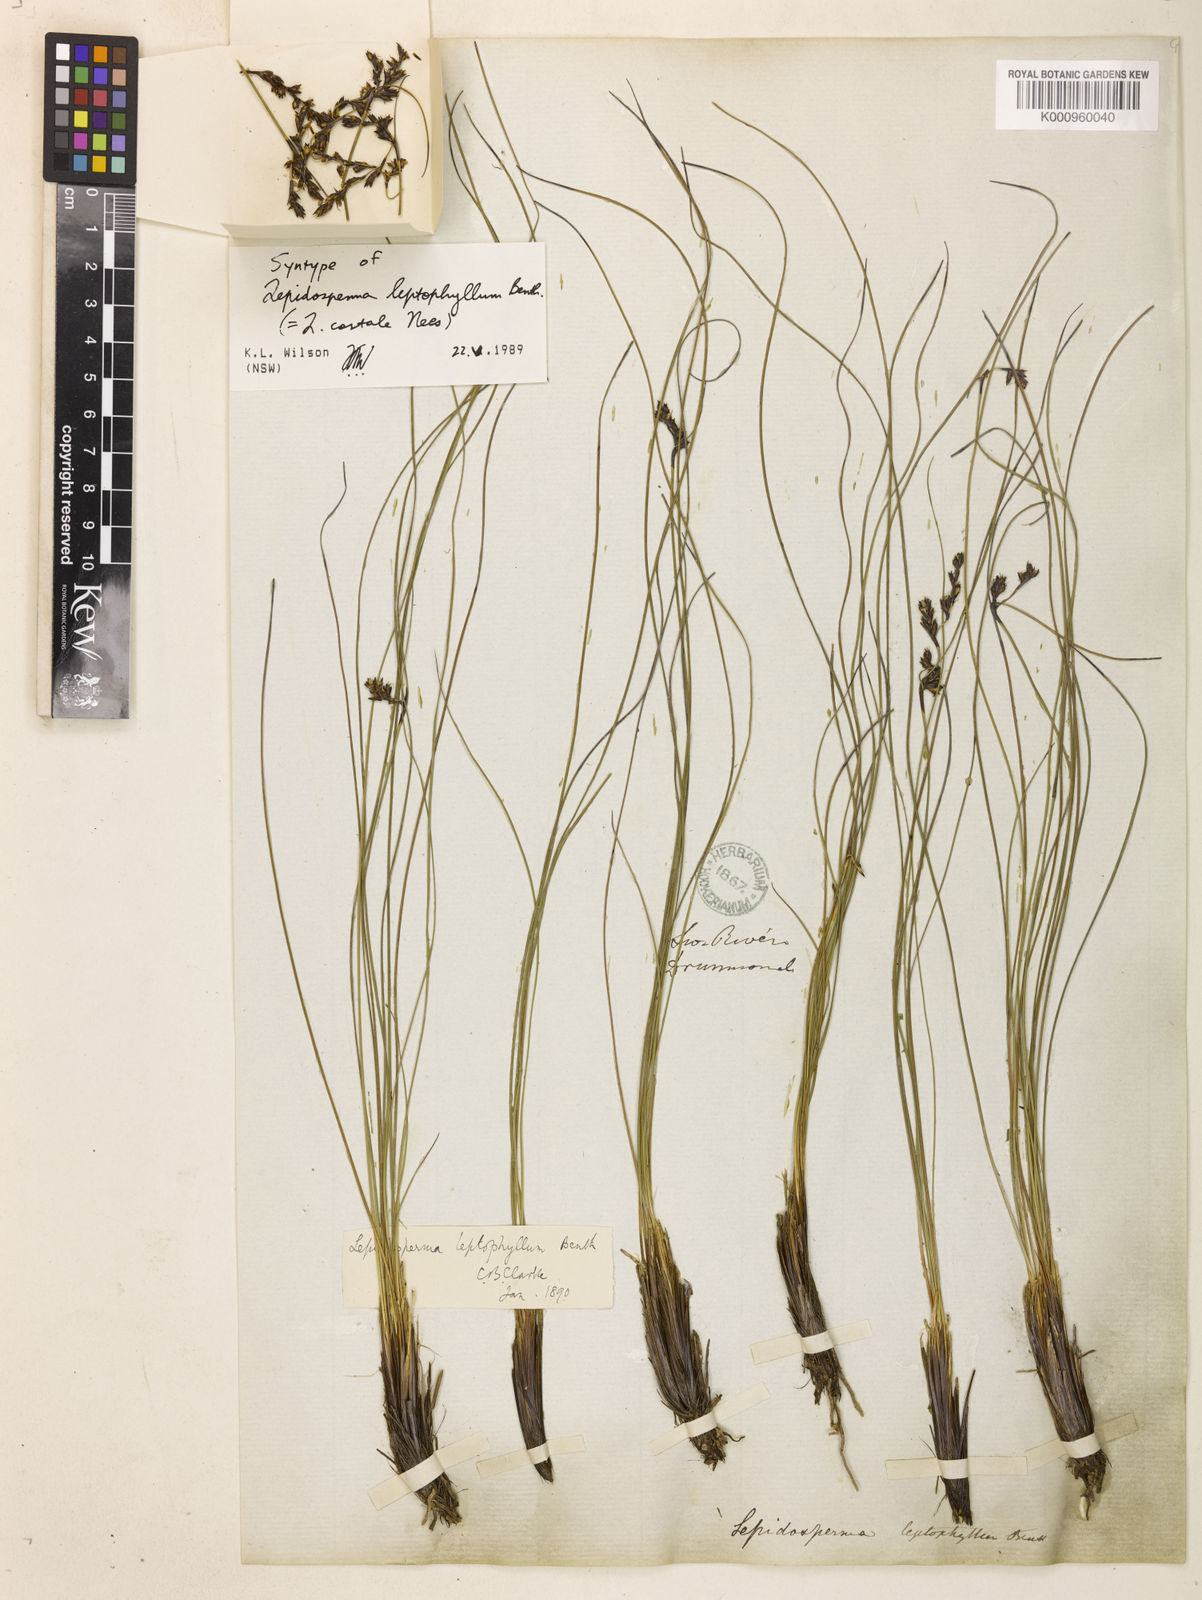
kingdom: Plantae
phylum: Tracheophyta
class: Liliopsida
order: Poales
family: Cyperaceae
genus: Lepidosperma
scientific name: Lepidosperma leptophyllum
